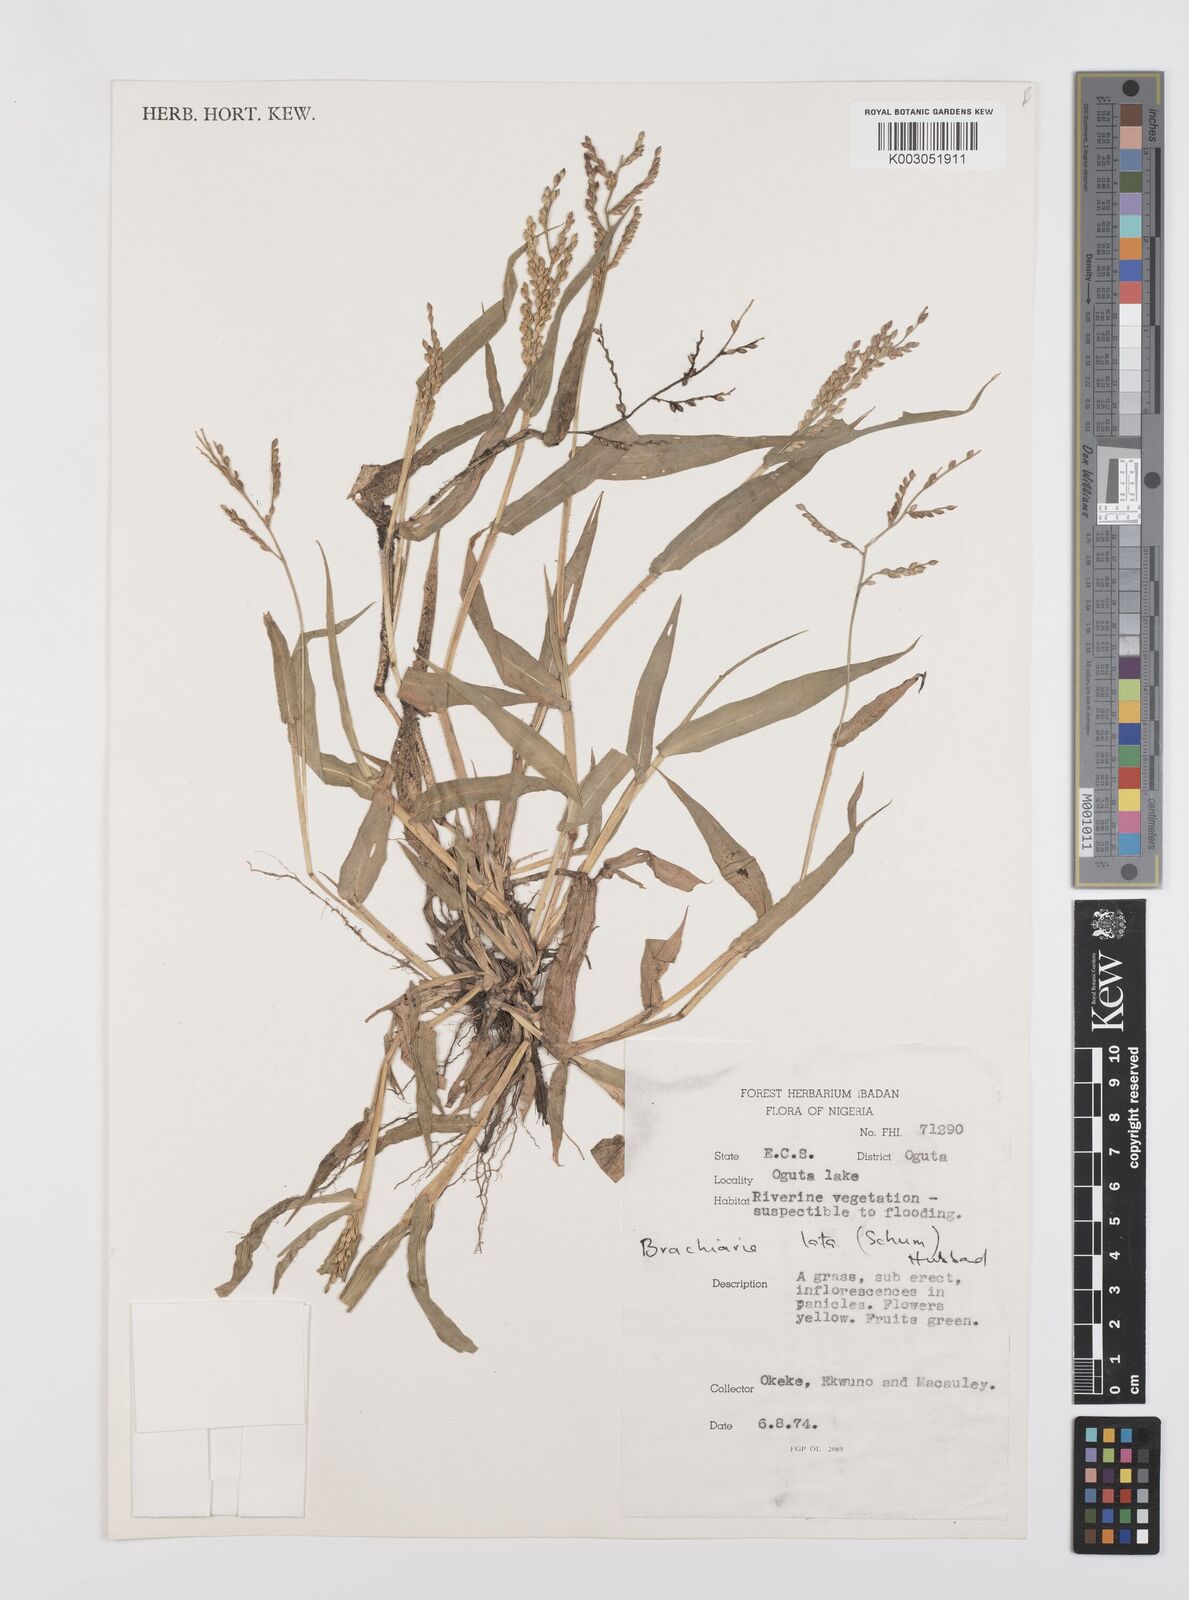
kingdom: Plantae
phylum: Tracheophyta
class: Liliopsida
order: Poales
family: Poaceae
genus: Urochloa
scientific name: Urochloa lata
